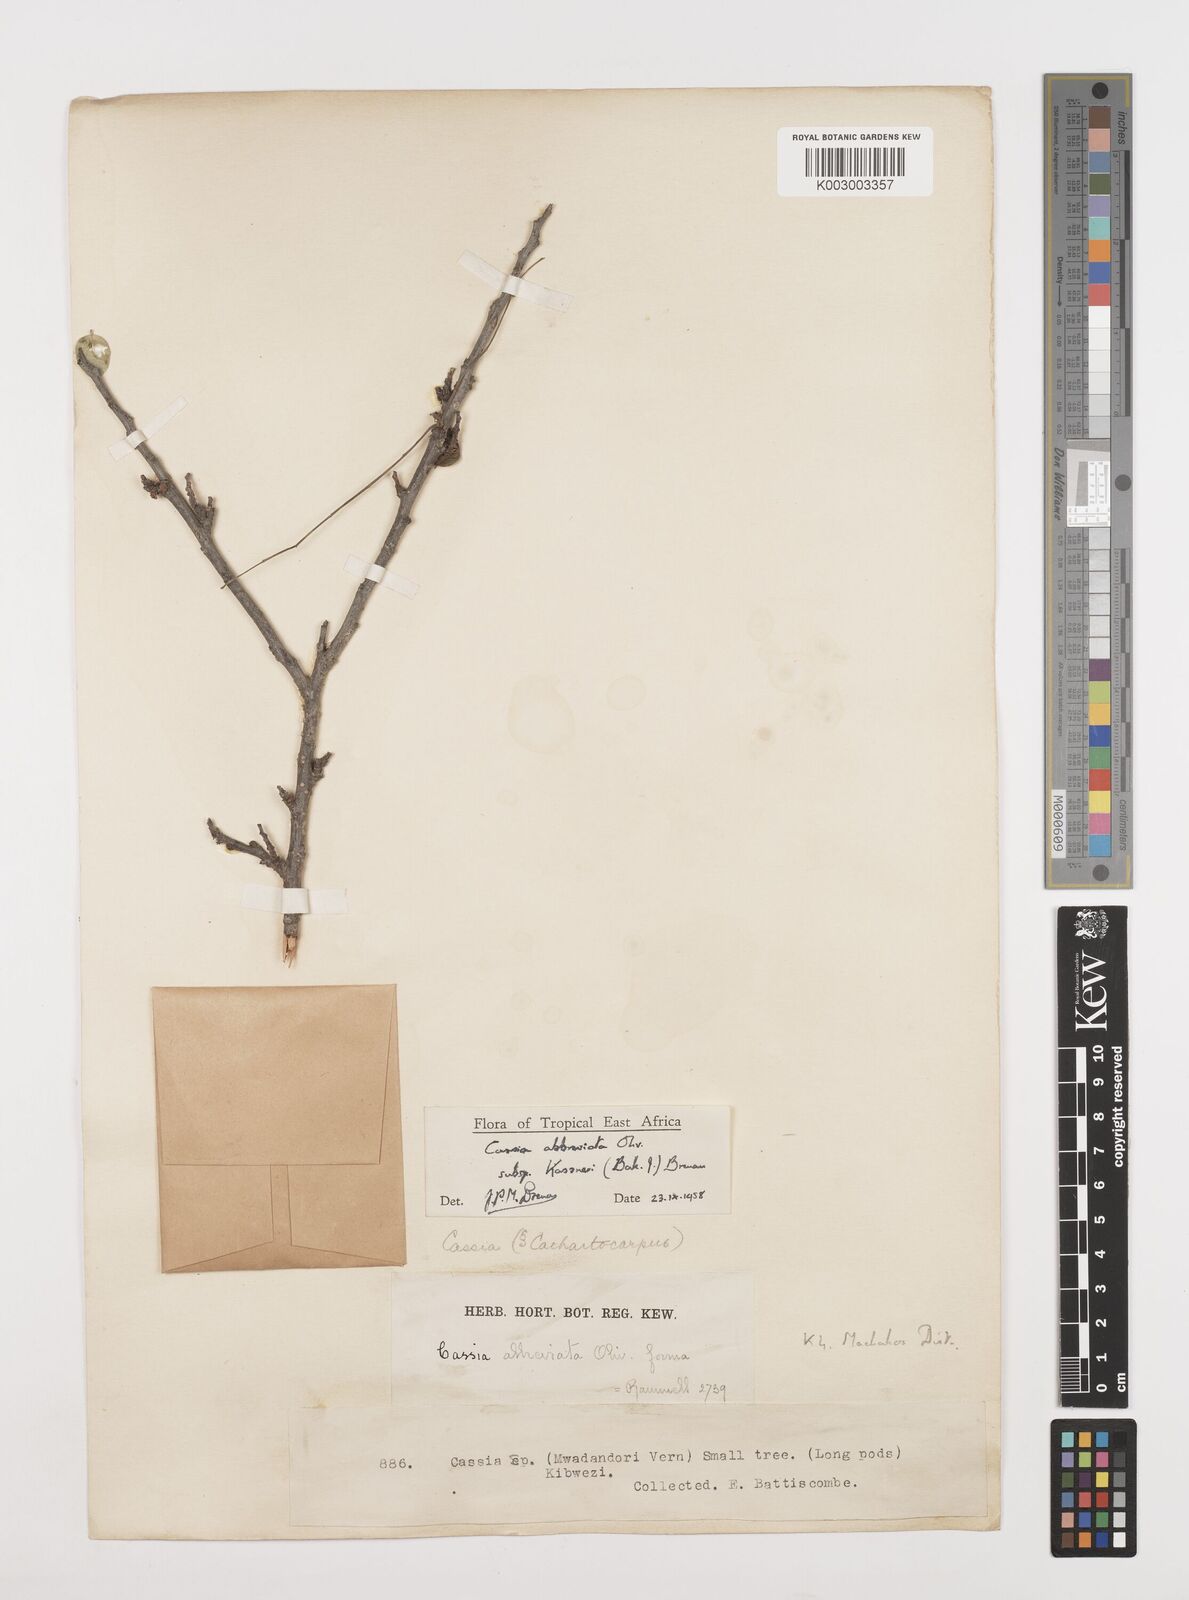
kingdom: Plantae
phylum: Tracheophyta
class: Magnoliopsida
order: Fabales
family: Fabaceae
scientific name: Fabaceae
